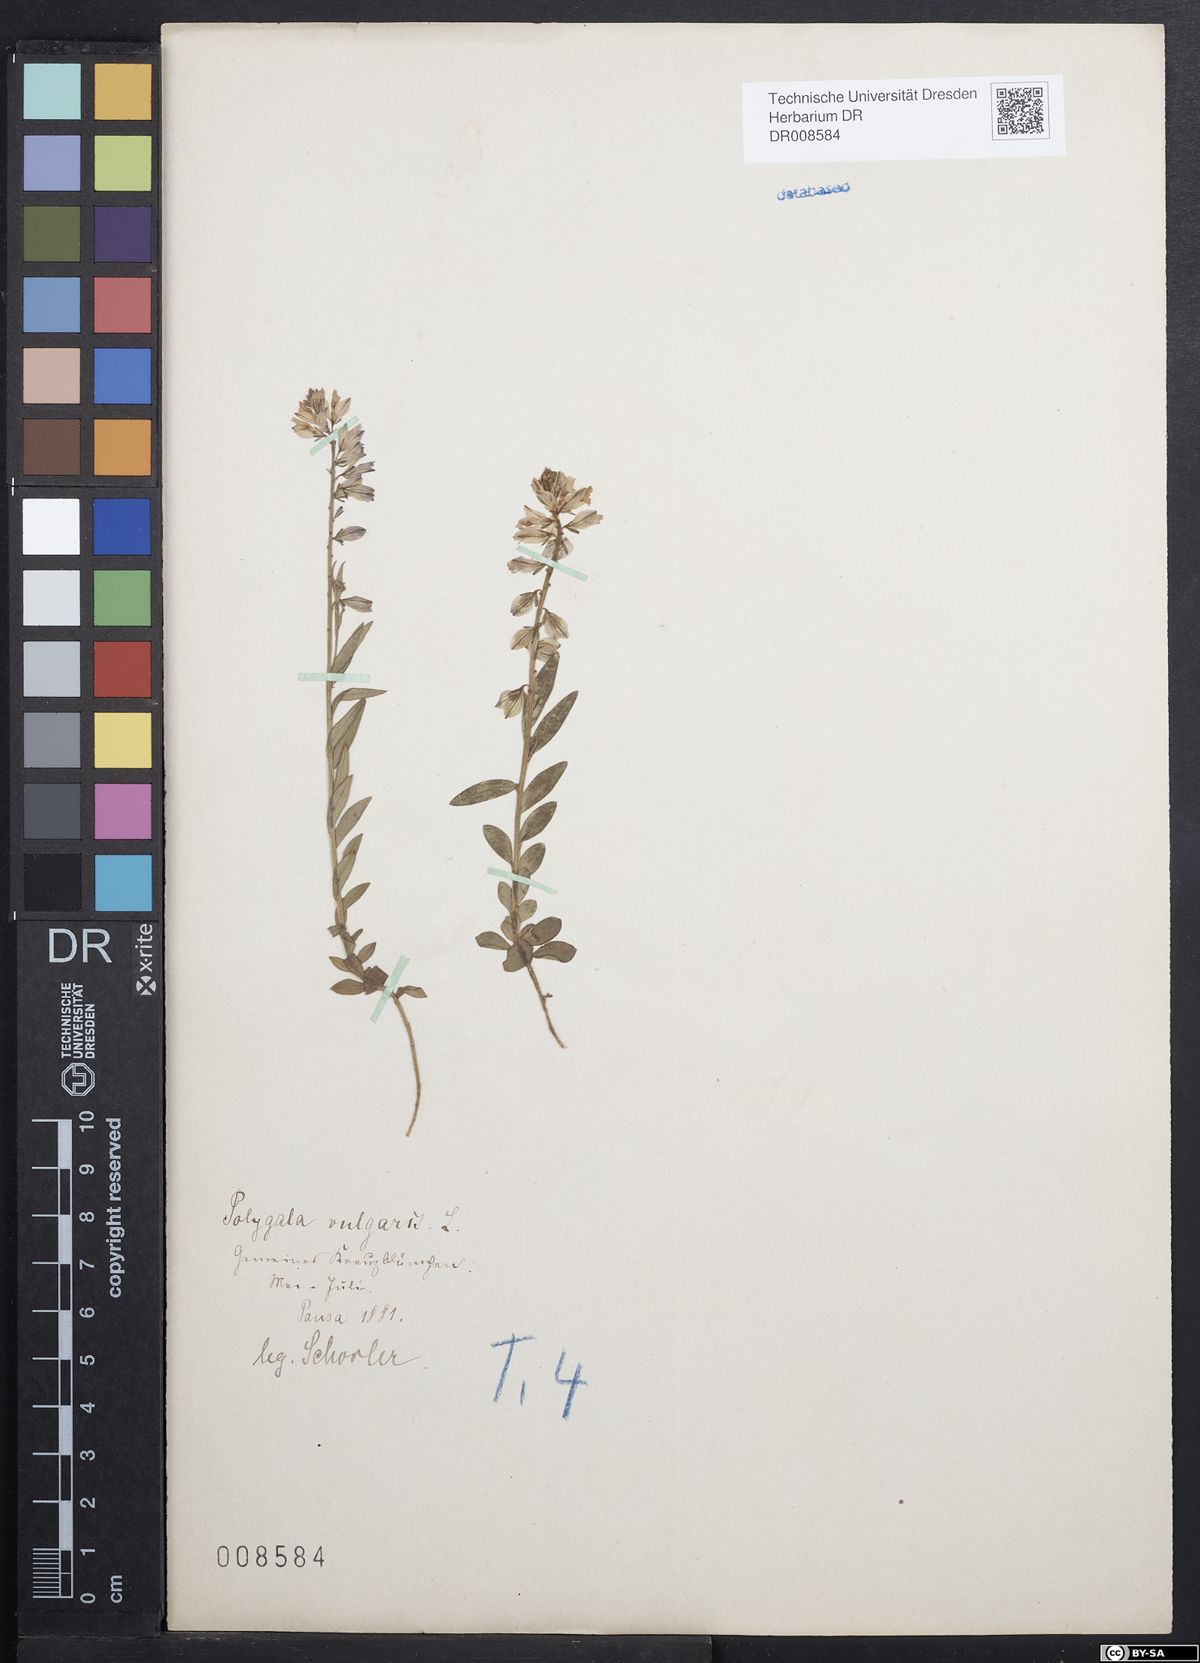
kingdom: Plantae
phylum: Tracheophyta
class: Magnoliopsida
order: Fabales
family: Polygalaceae
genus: Polygala
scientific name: Polygala vulgaris
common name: Common milkwort
